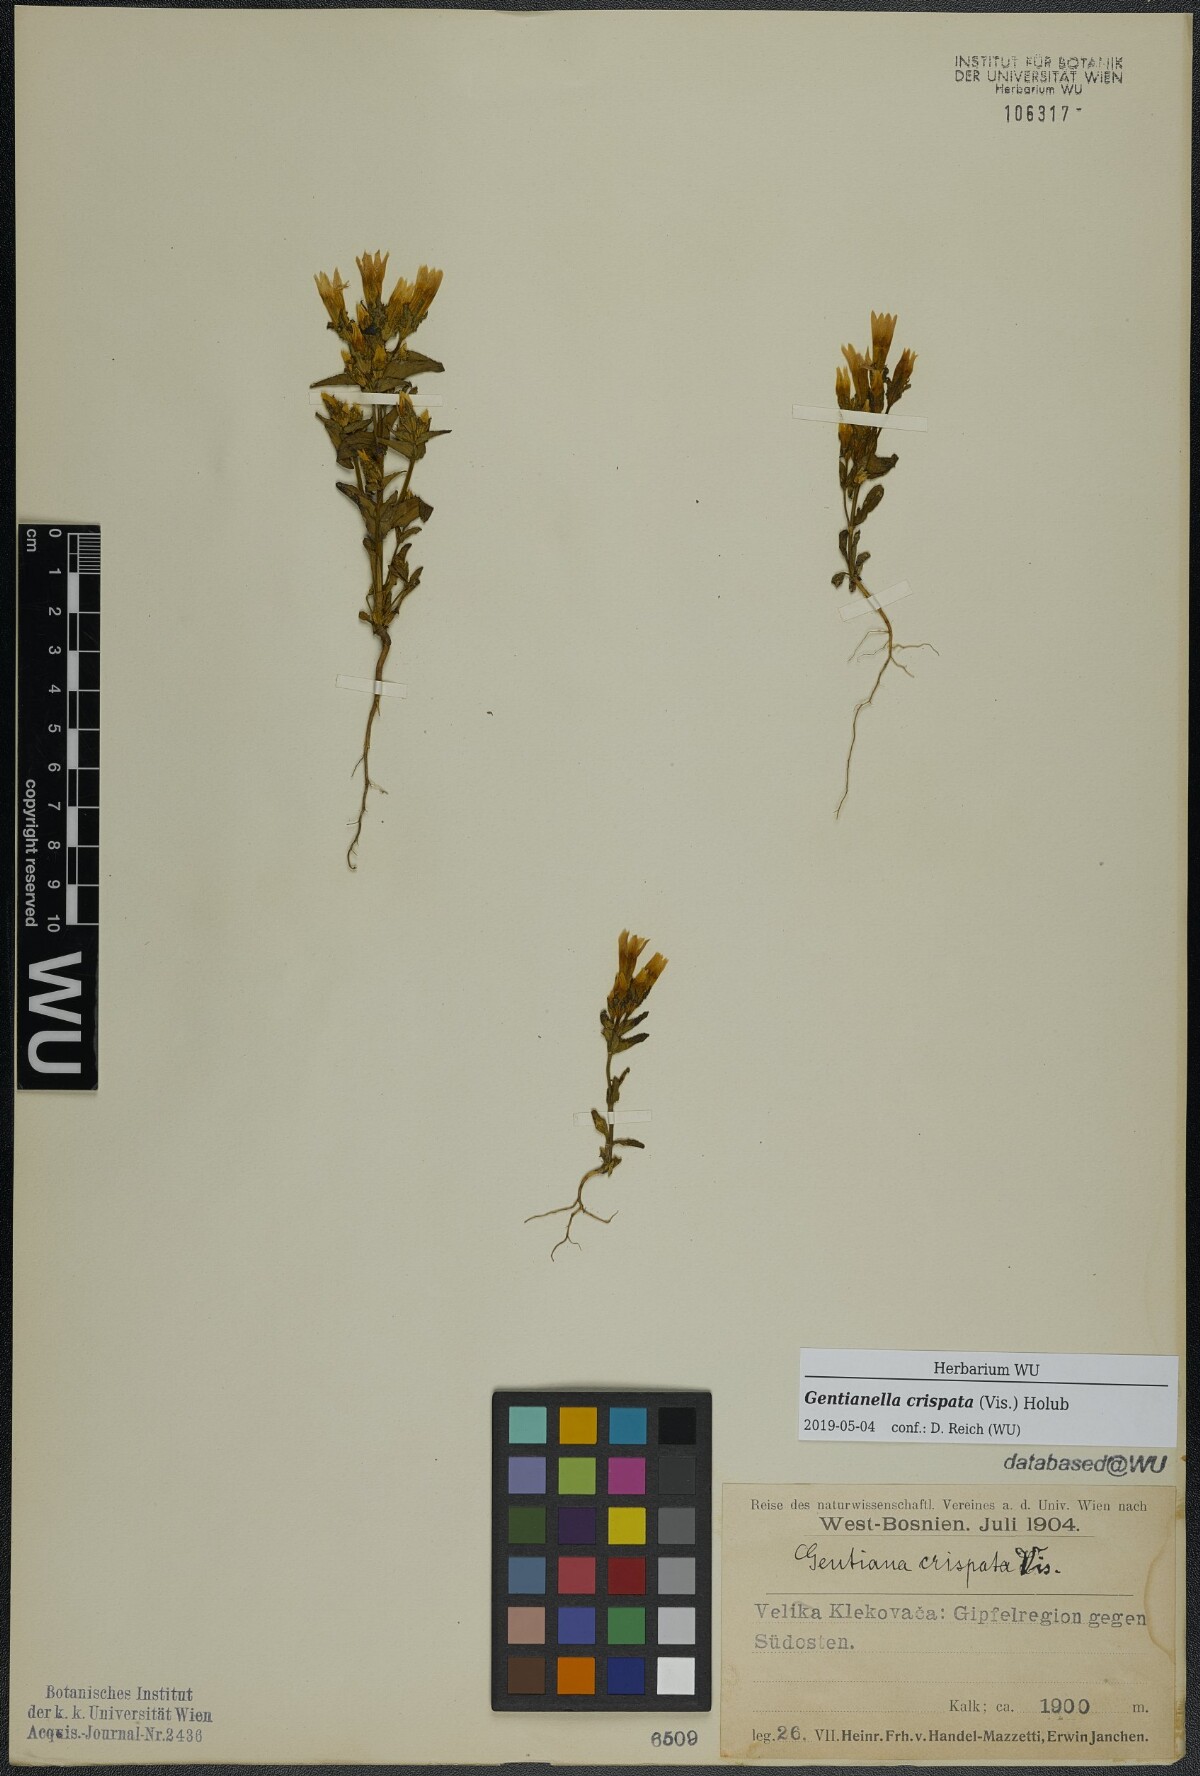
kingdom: Plantae
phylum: Tracheophyta
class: Magnoliopsida
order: Gentianales
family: Gentianaceae
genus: Gentianella
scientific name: Gentianella crispata
